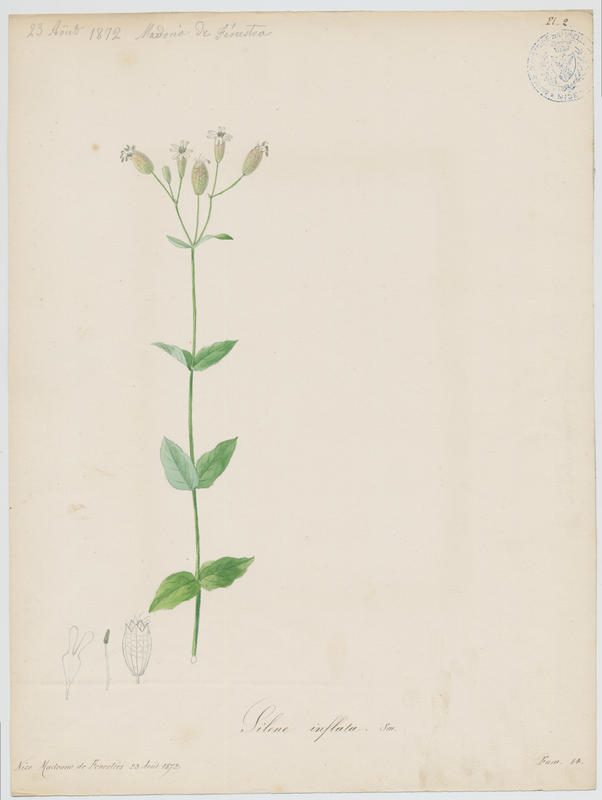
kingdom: Plantae
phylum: Tracheophyta
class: Magnoliopsida
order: Caryophyllales
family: Caryophyllaceae
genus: Silene
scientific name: Silene vulgaris
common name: Bladder campion
